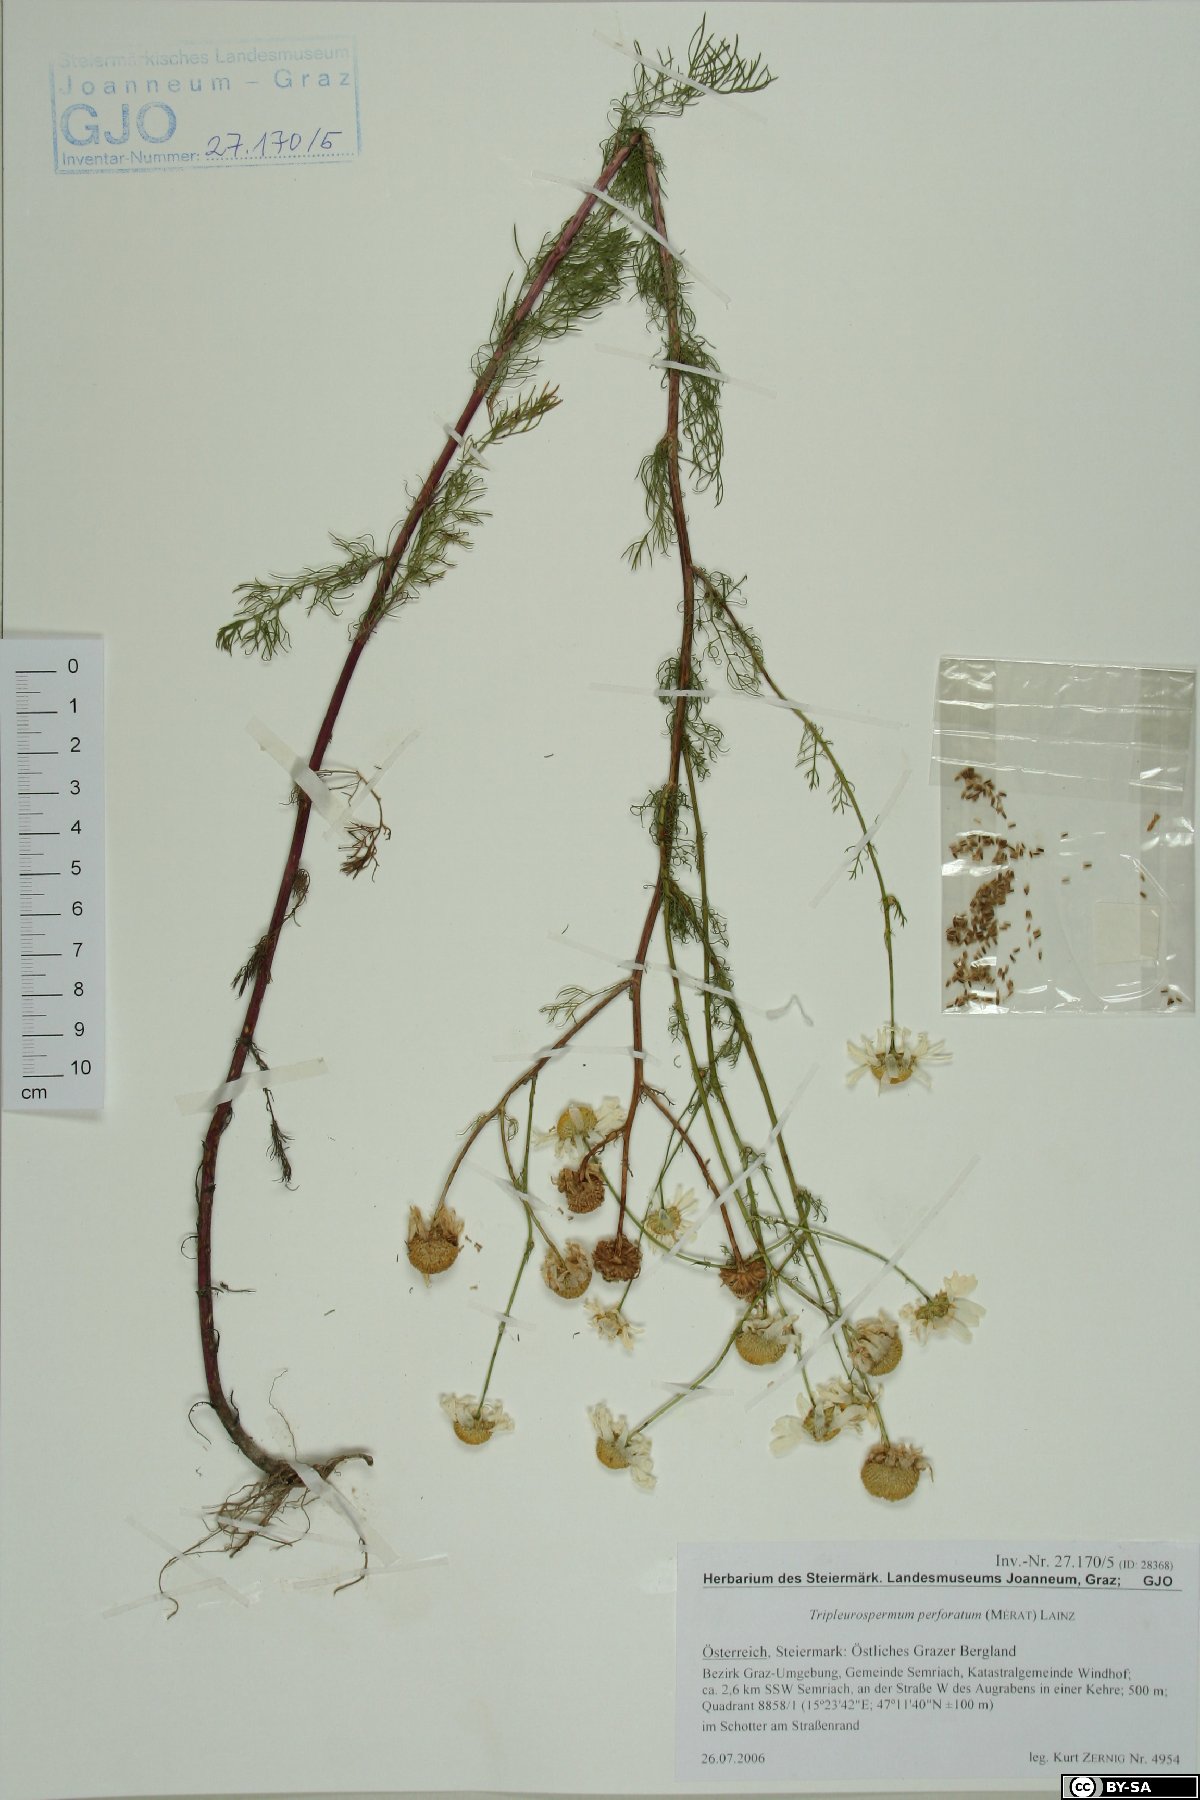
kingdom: Plantae
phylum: Tracheophyta
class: Magnoliopsida
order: Asterales
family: Asteraceae
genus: Tripleurospermum
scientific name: Tripleurospermum inodorum
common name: Scentless mayweed
